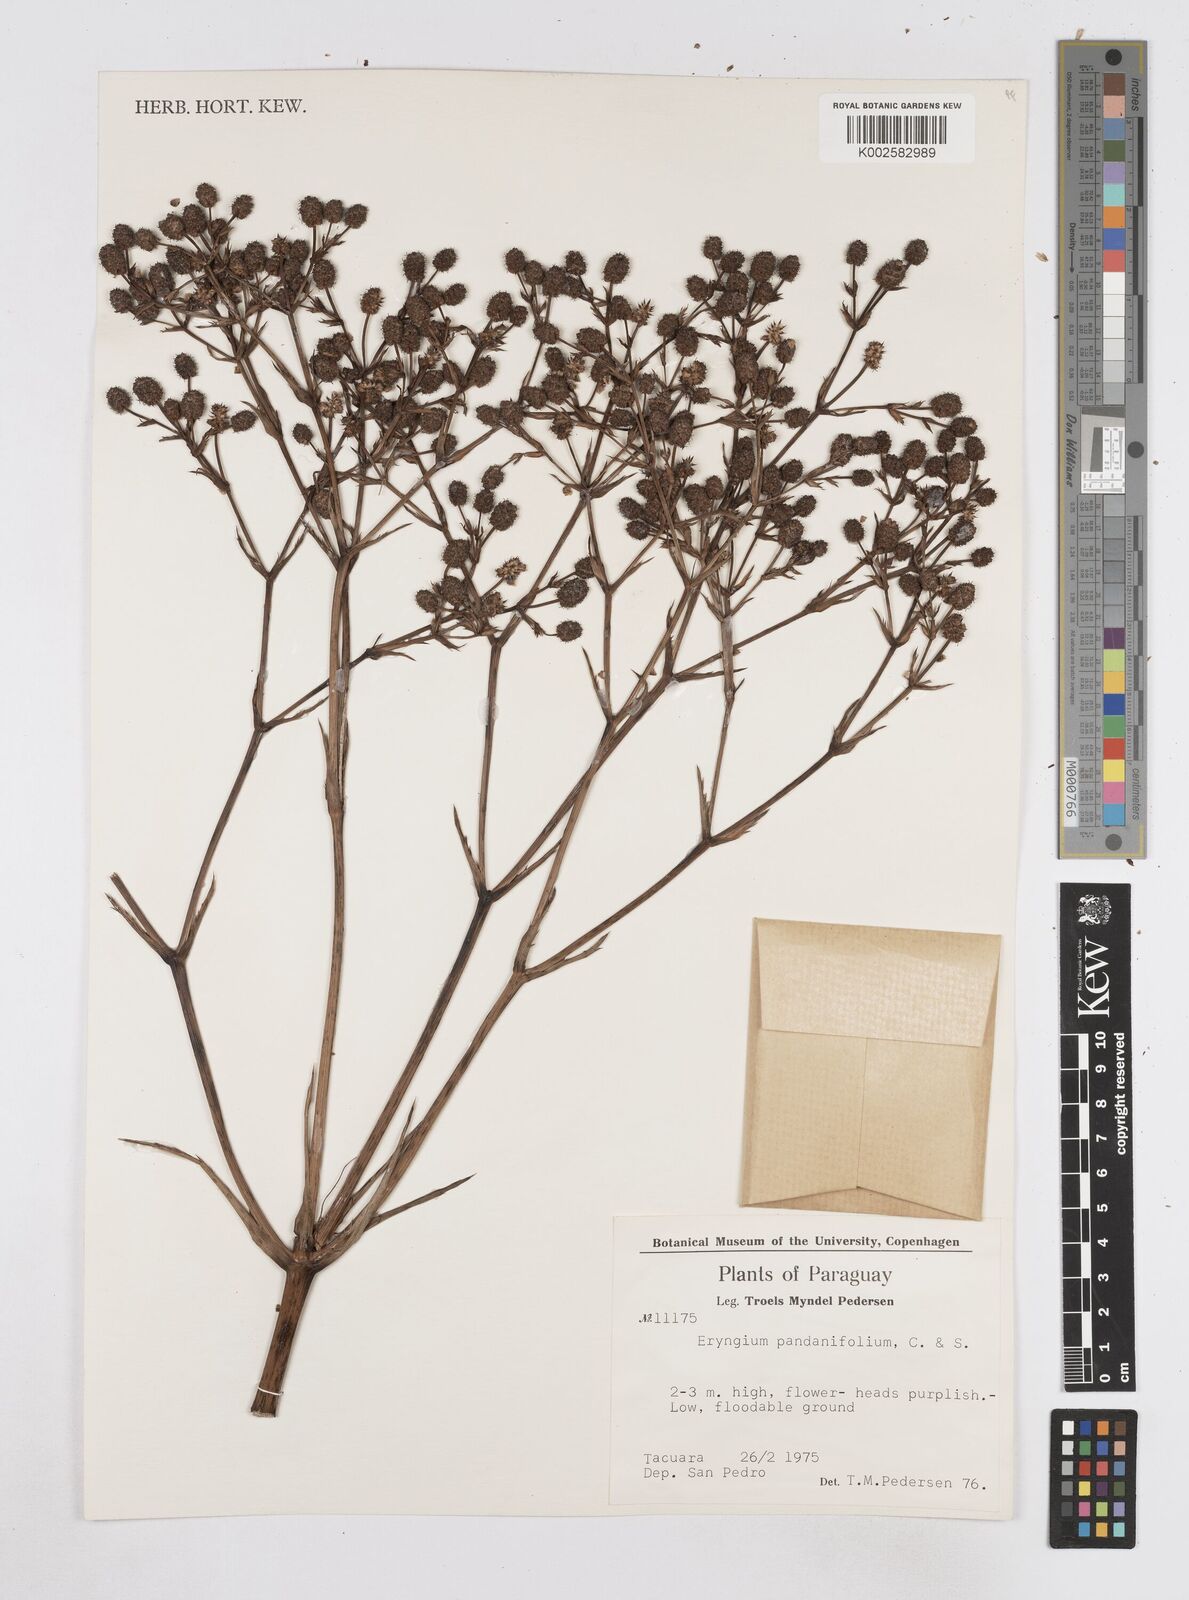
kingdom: Plantae
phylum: Tracheophyta
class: Magnoliopsida
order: Apiales
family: Apiaceae
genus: Eryngium
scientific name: Eryngium pandanifolium
